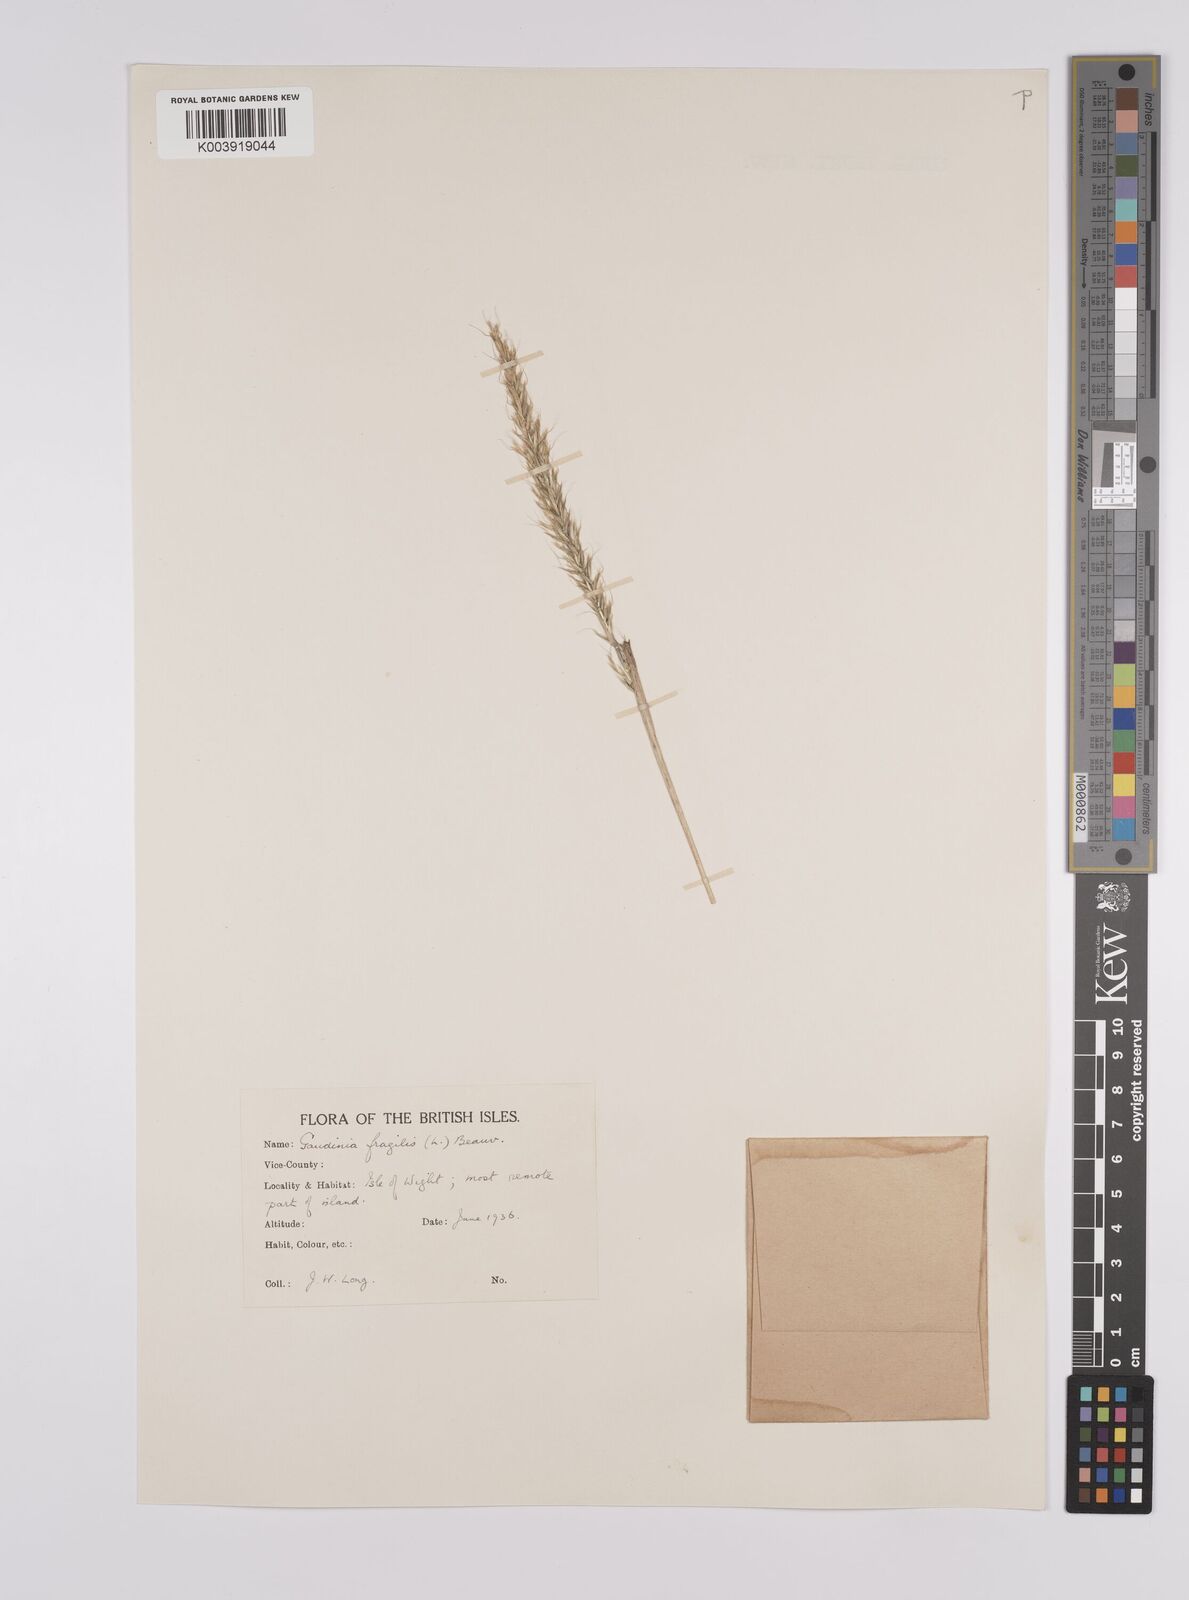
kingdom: Plantae
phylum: Tracheophyta
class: Liliopsida
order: Poales
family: Poaceae
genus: Gaudinia
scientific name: Gaudinia fragilis
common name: French oat-grass
